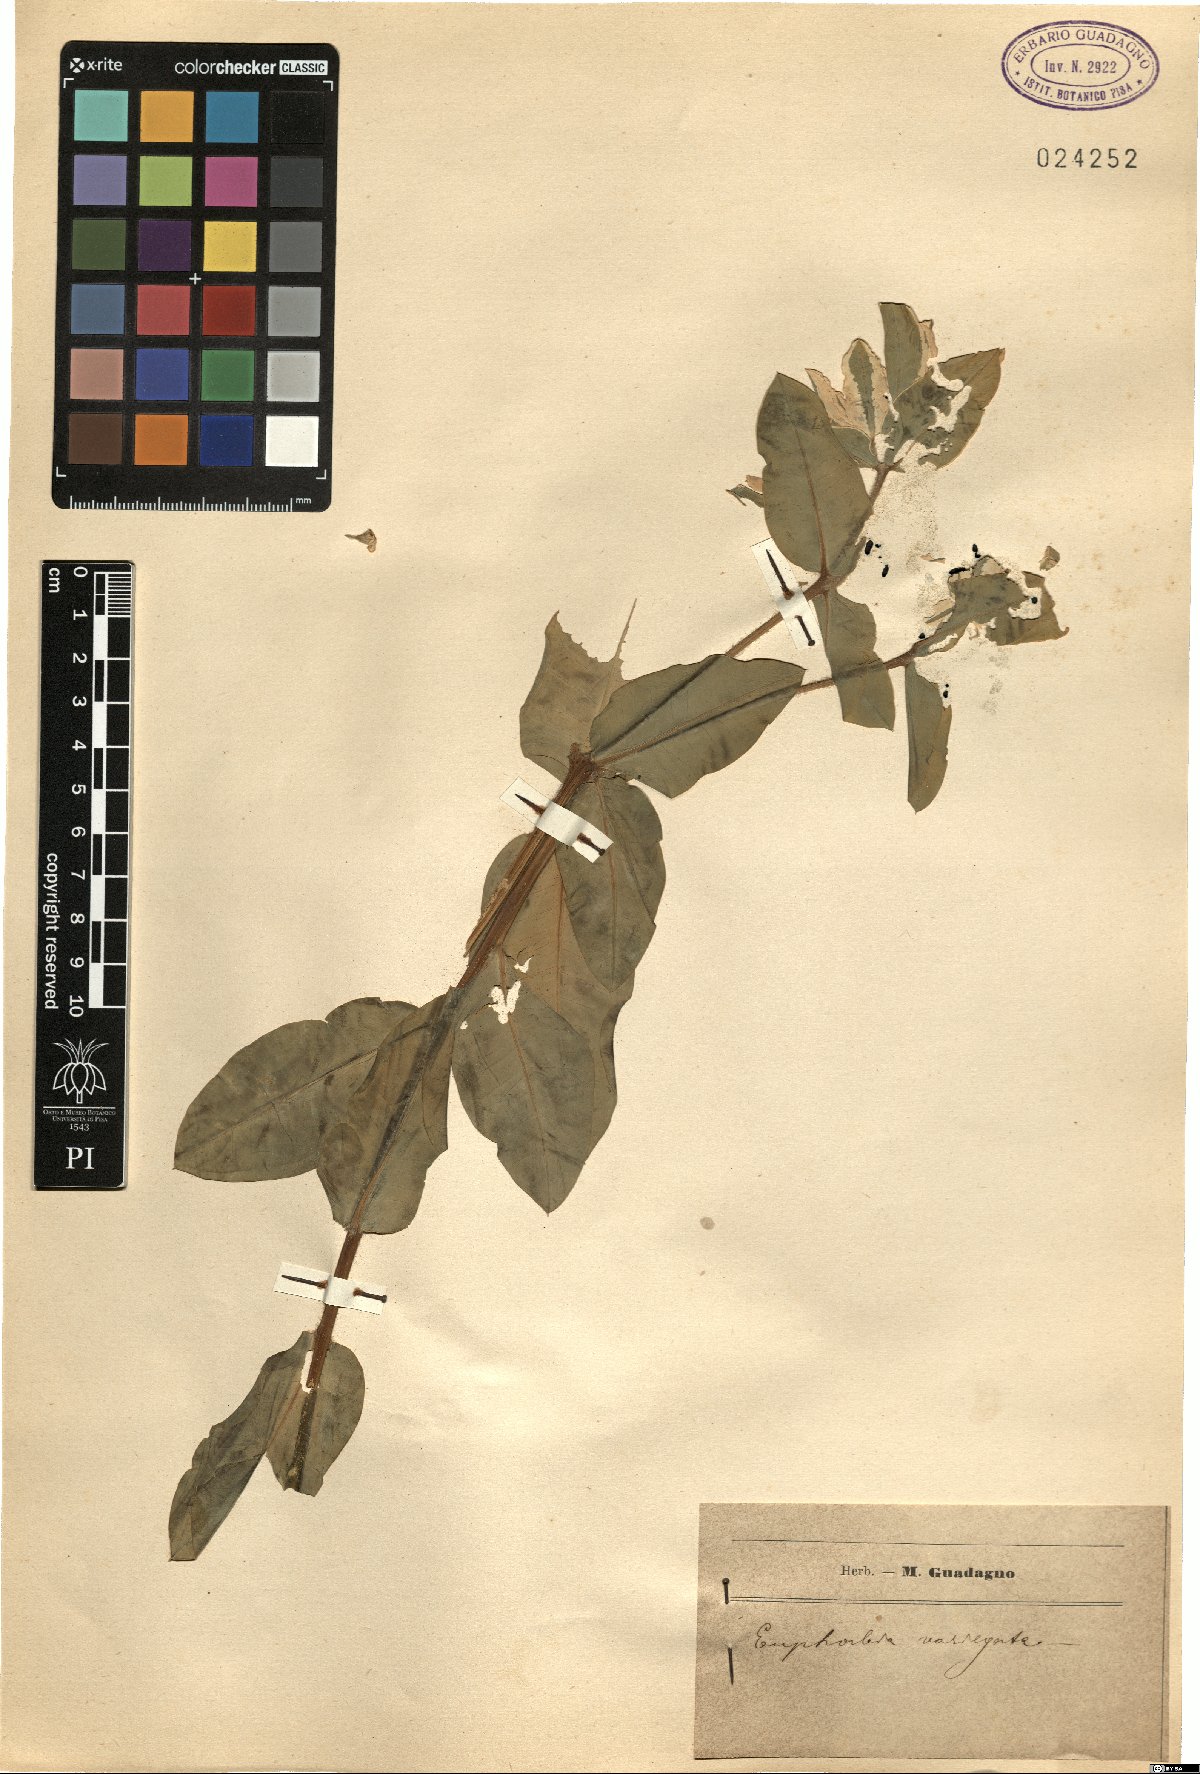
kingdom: Plantae
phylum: Tracheophyta
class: Magnoliopsida
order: Malpighiales
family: Euphorbiaceae
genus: Euphorbia
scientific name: Euphorbia marginata
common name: Ghostweed
